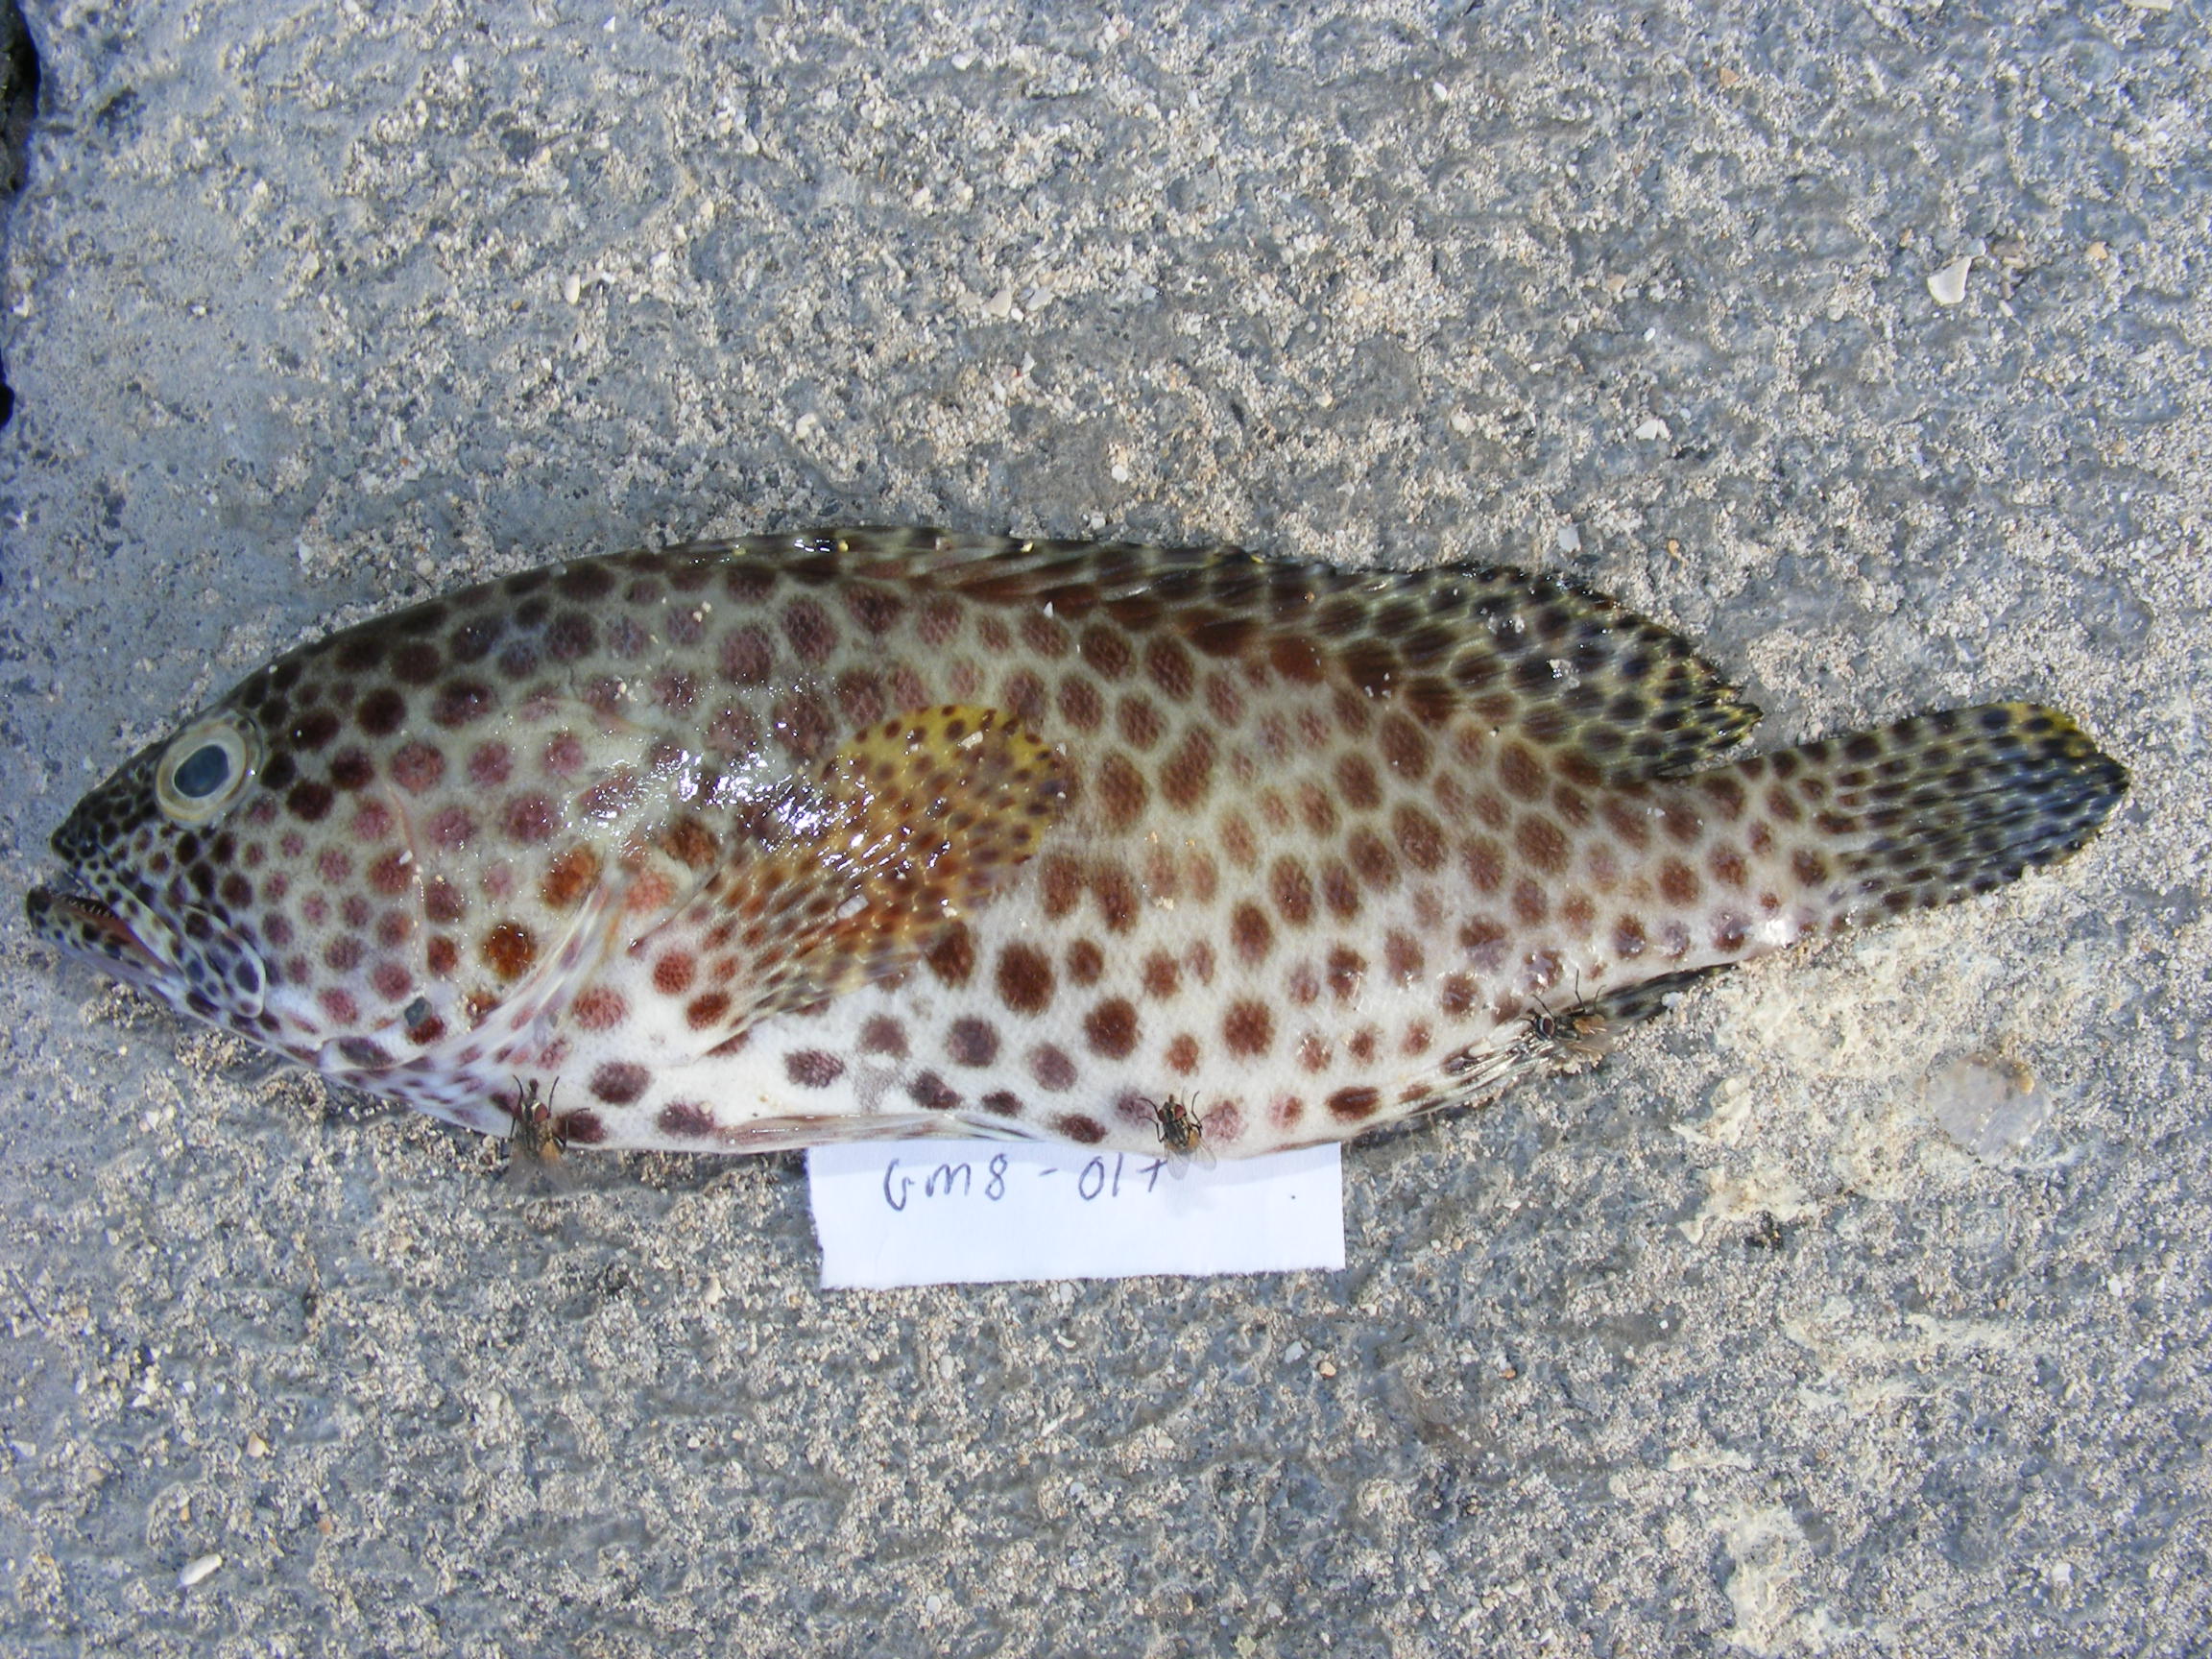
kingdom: Animalia
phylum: Chordata
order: Perciformes
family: Serranidae
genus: Epinephelus
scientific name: Epinephelus spilotoceps
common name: Foursaddle grouper
